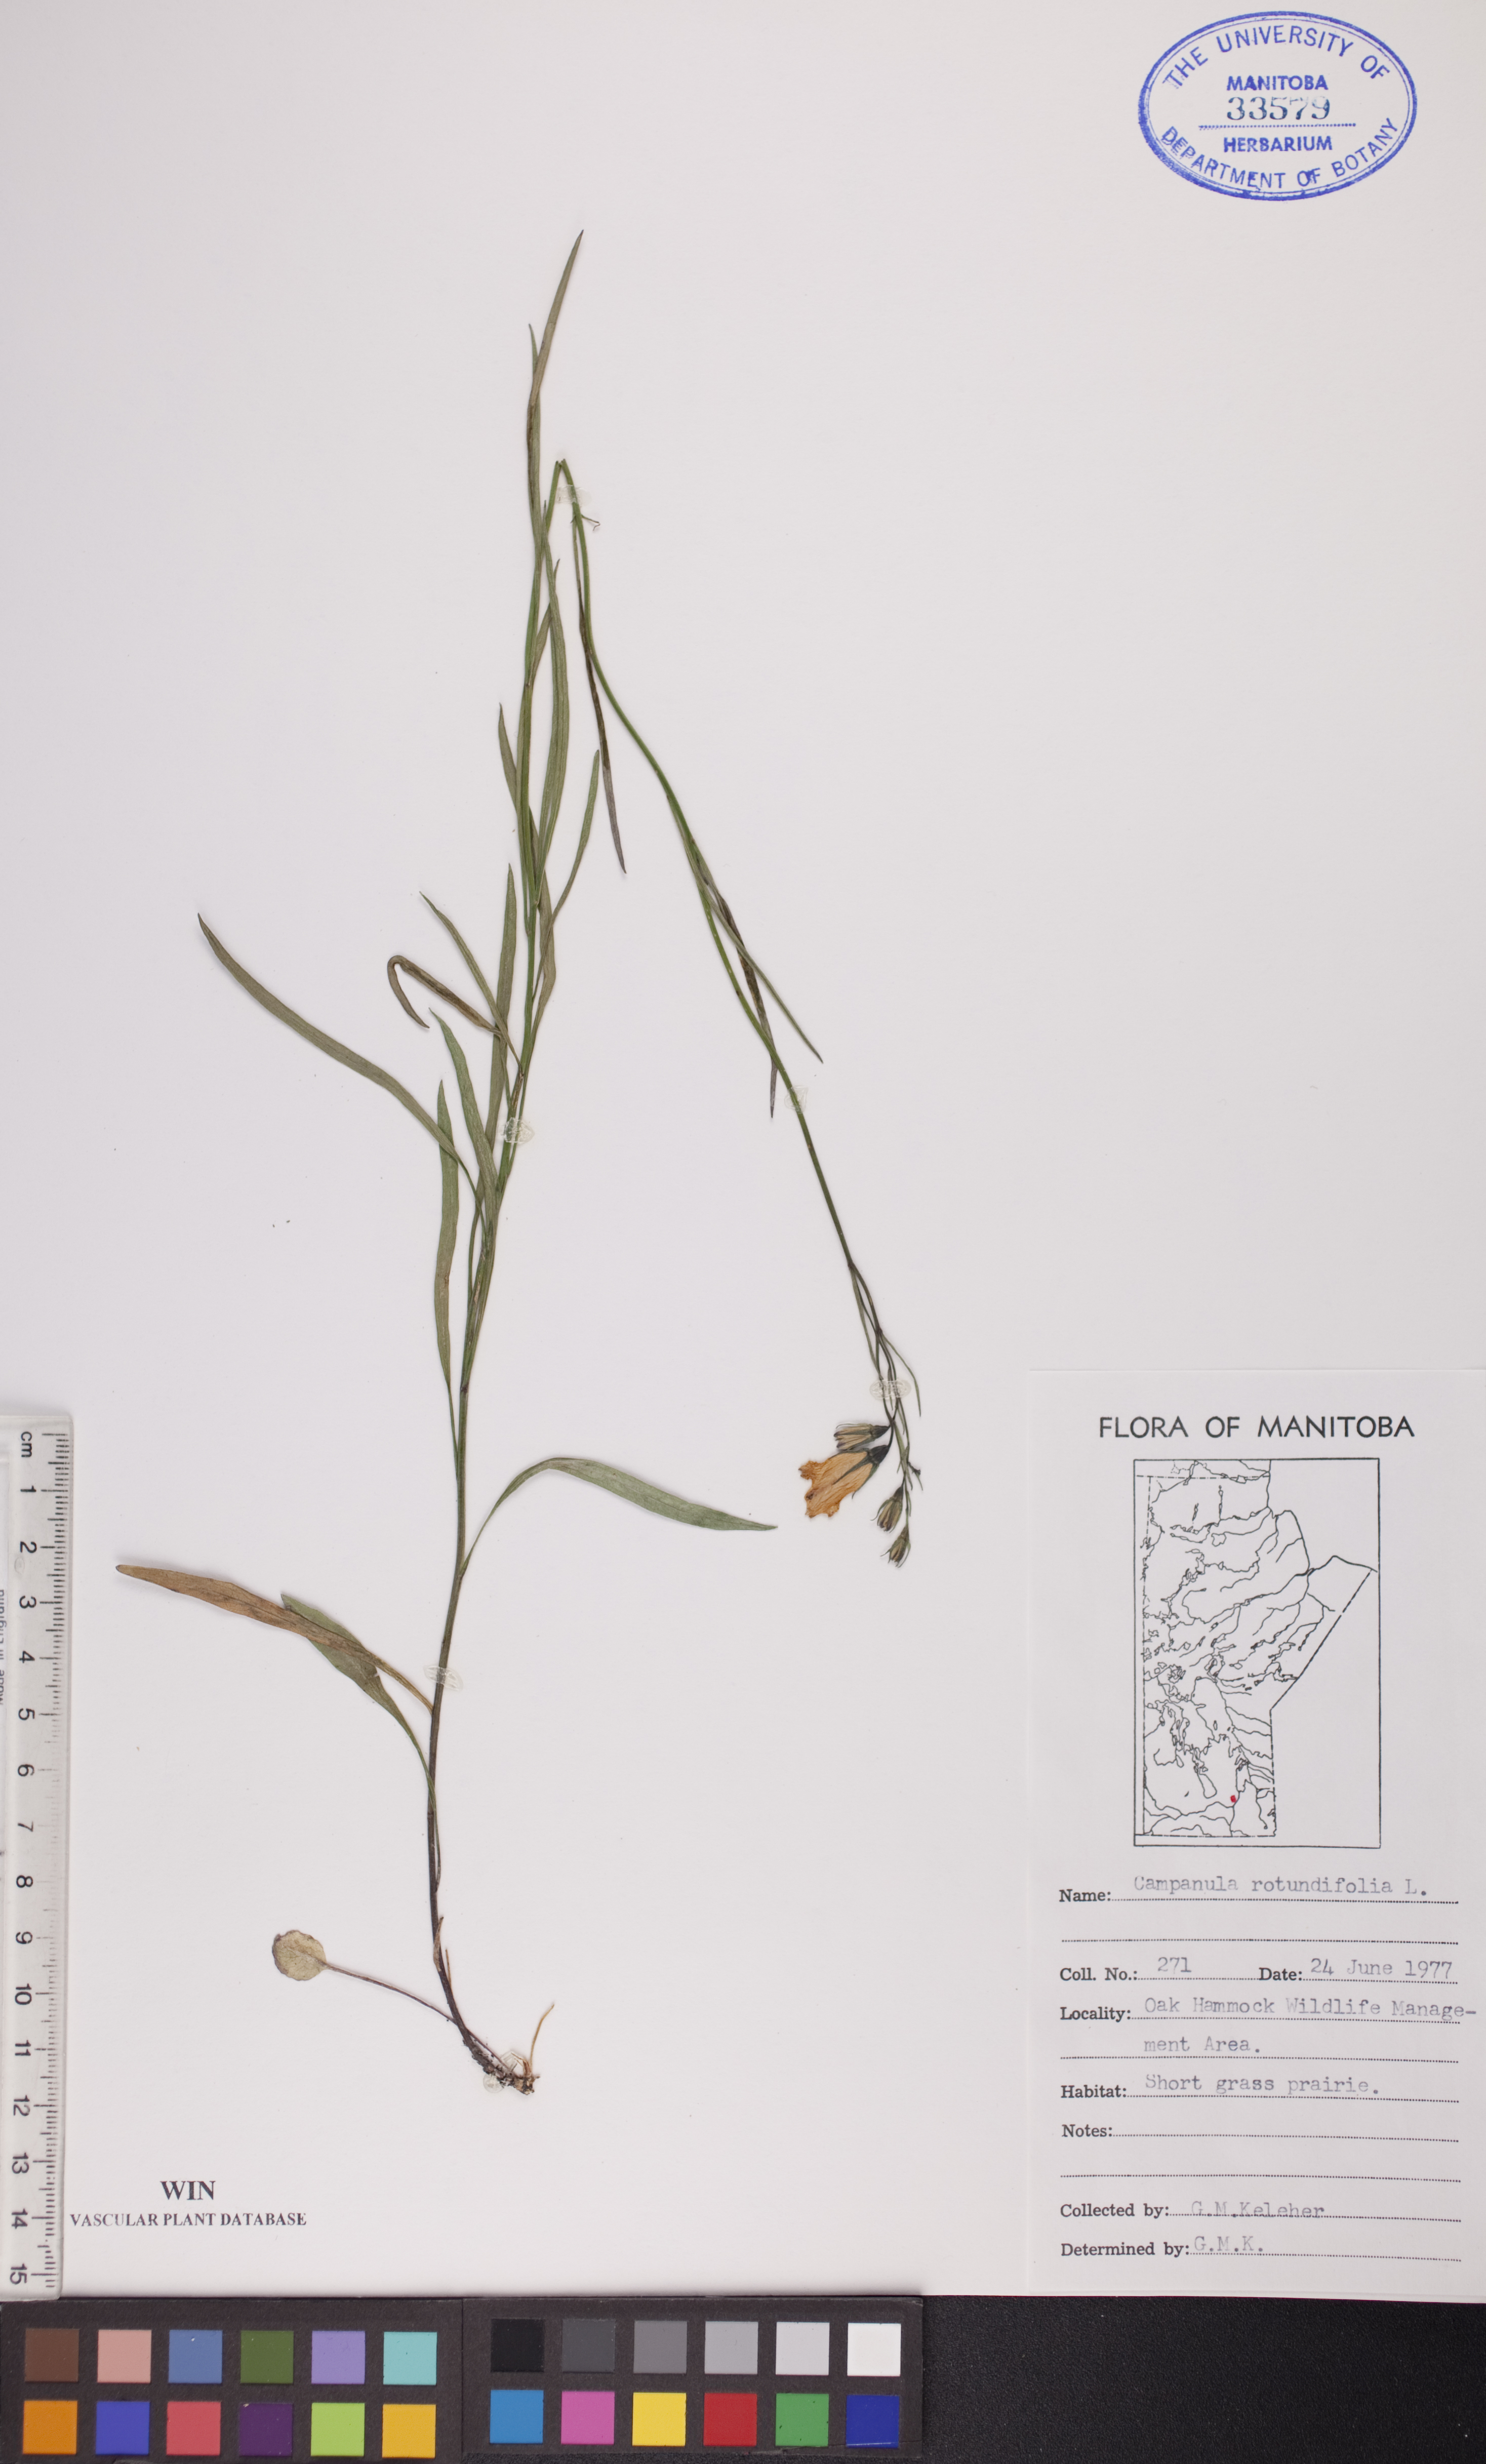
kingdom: Plantae
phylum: Tracheophyta
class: Magnoliopsida
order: Asterales
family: Campanulaceae
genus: Campanula
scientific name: Campanula rotundifolia
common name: Harebell
